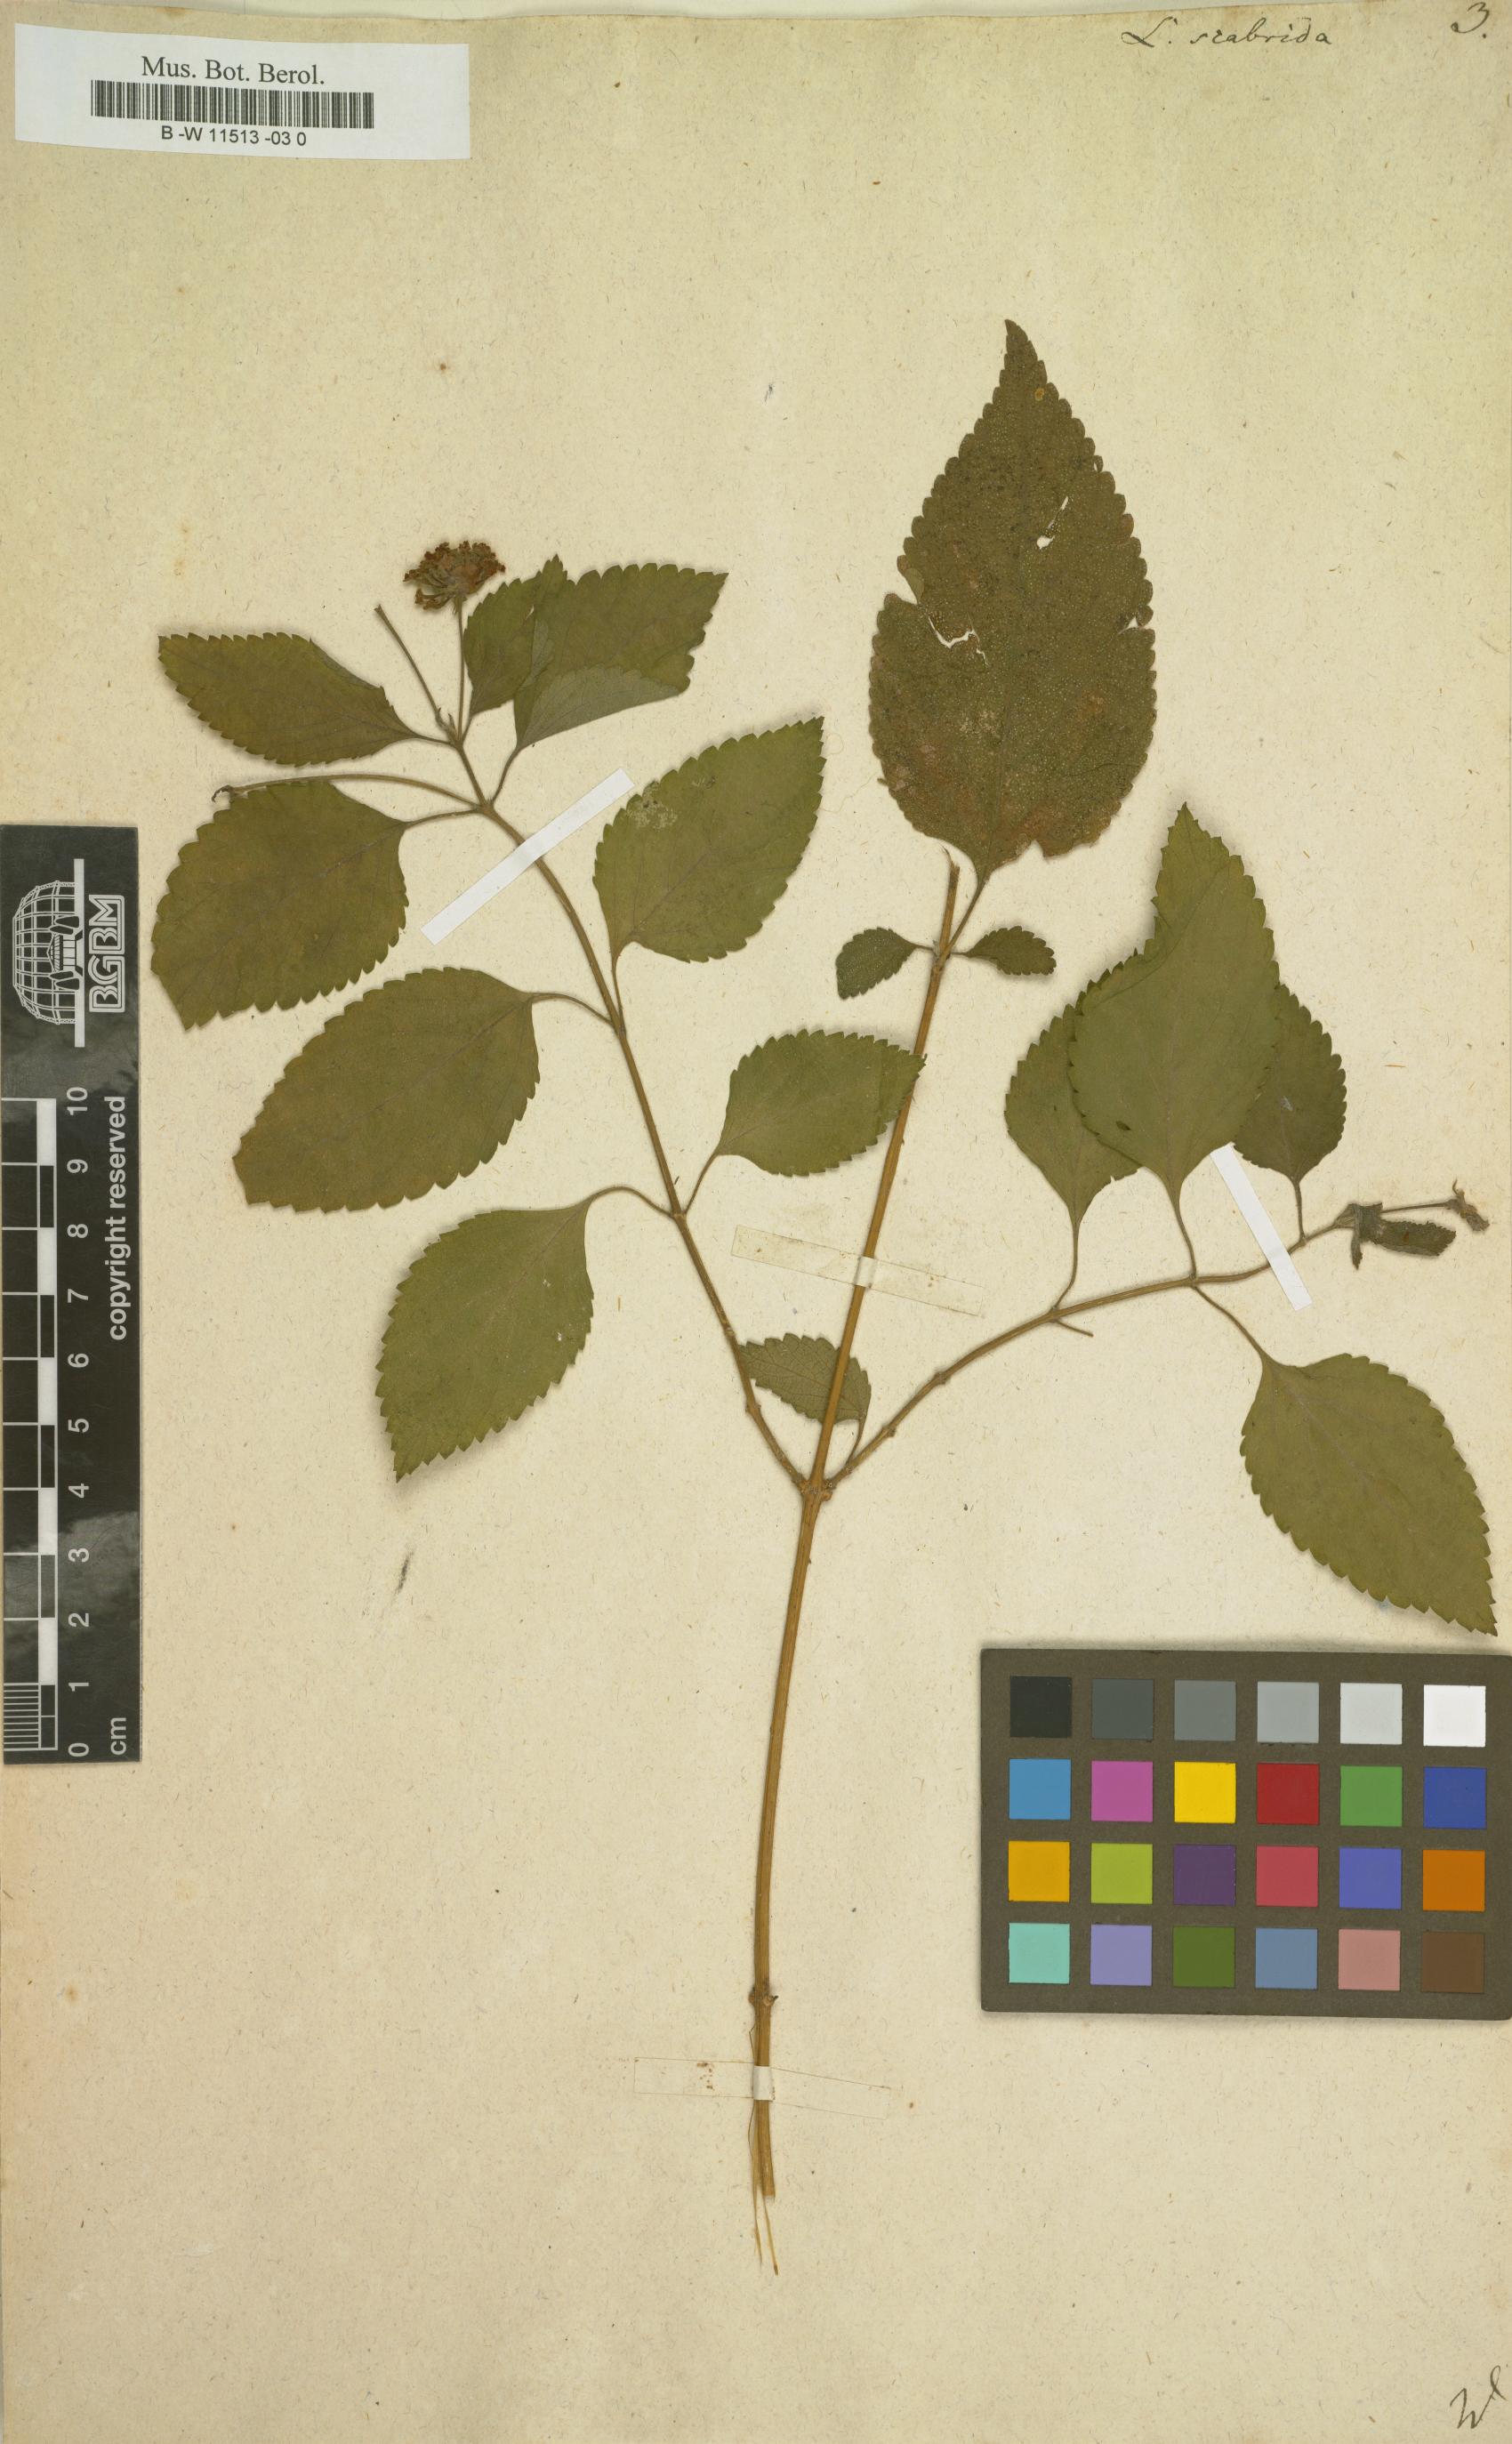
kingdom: Plantae
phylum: Tracheophyta
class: Magnoliopsida
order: Lamiales
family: Verbenaceae
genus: Lantana
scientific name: Lantana scabrida
